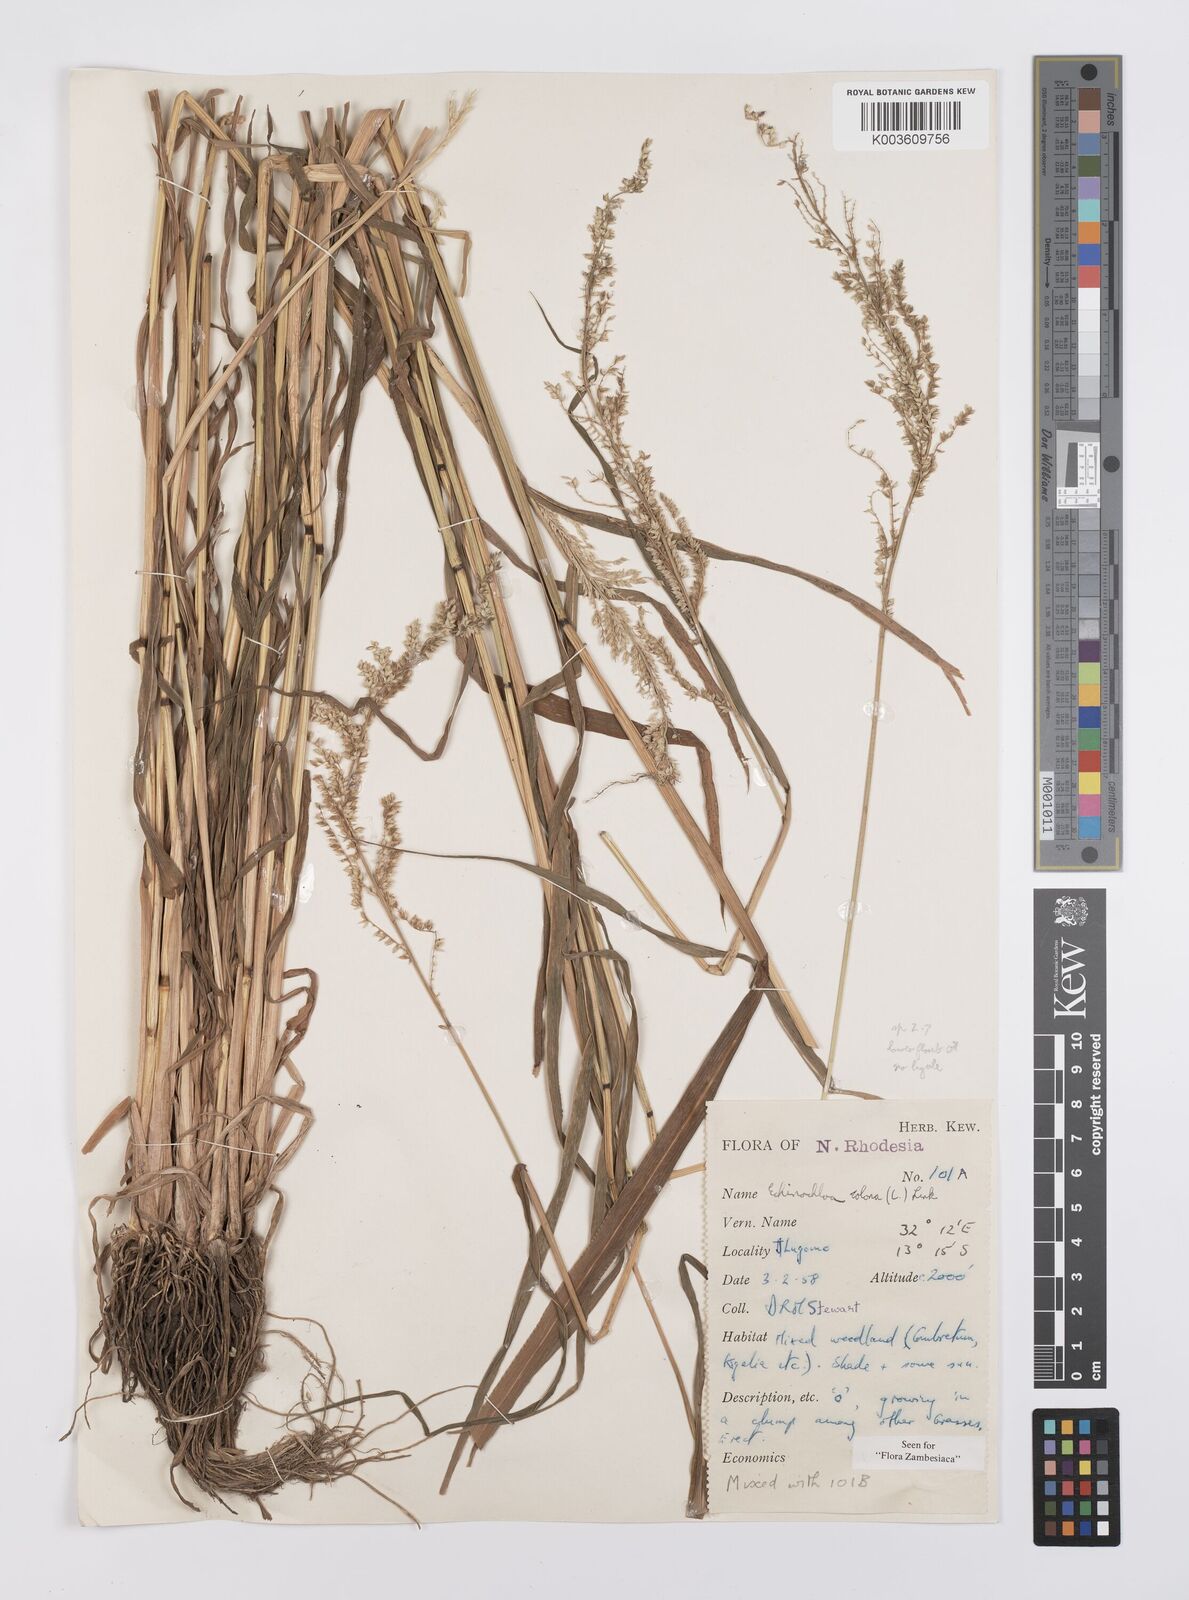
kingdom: Plantae
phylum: Tracheophyta
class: Liliopsida
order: Poales
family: Poaceae
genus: Echinochloa
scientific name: Echinochloa colonum
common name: Jungle rice
